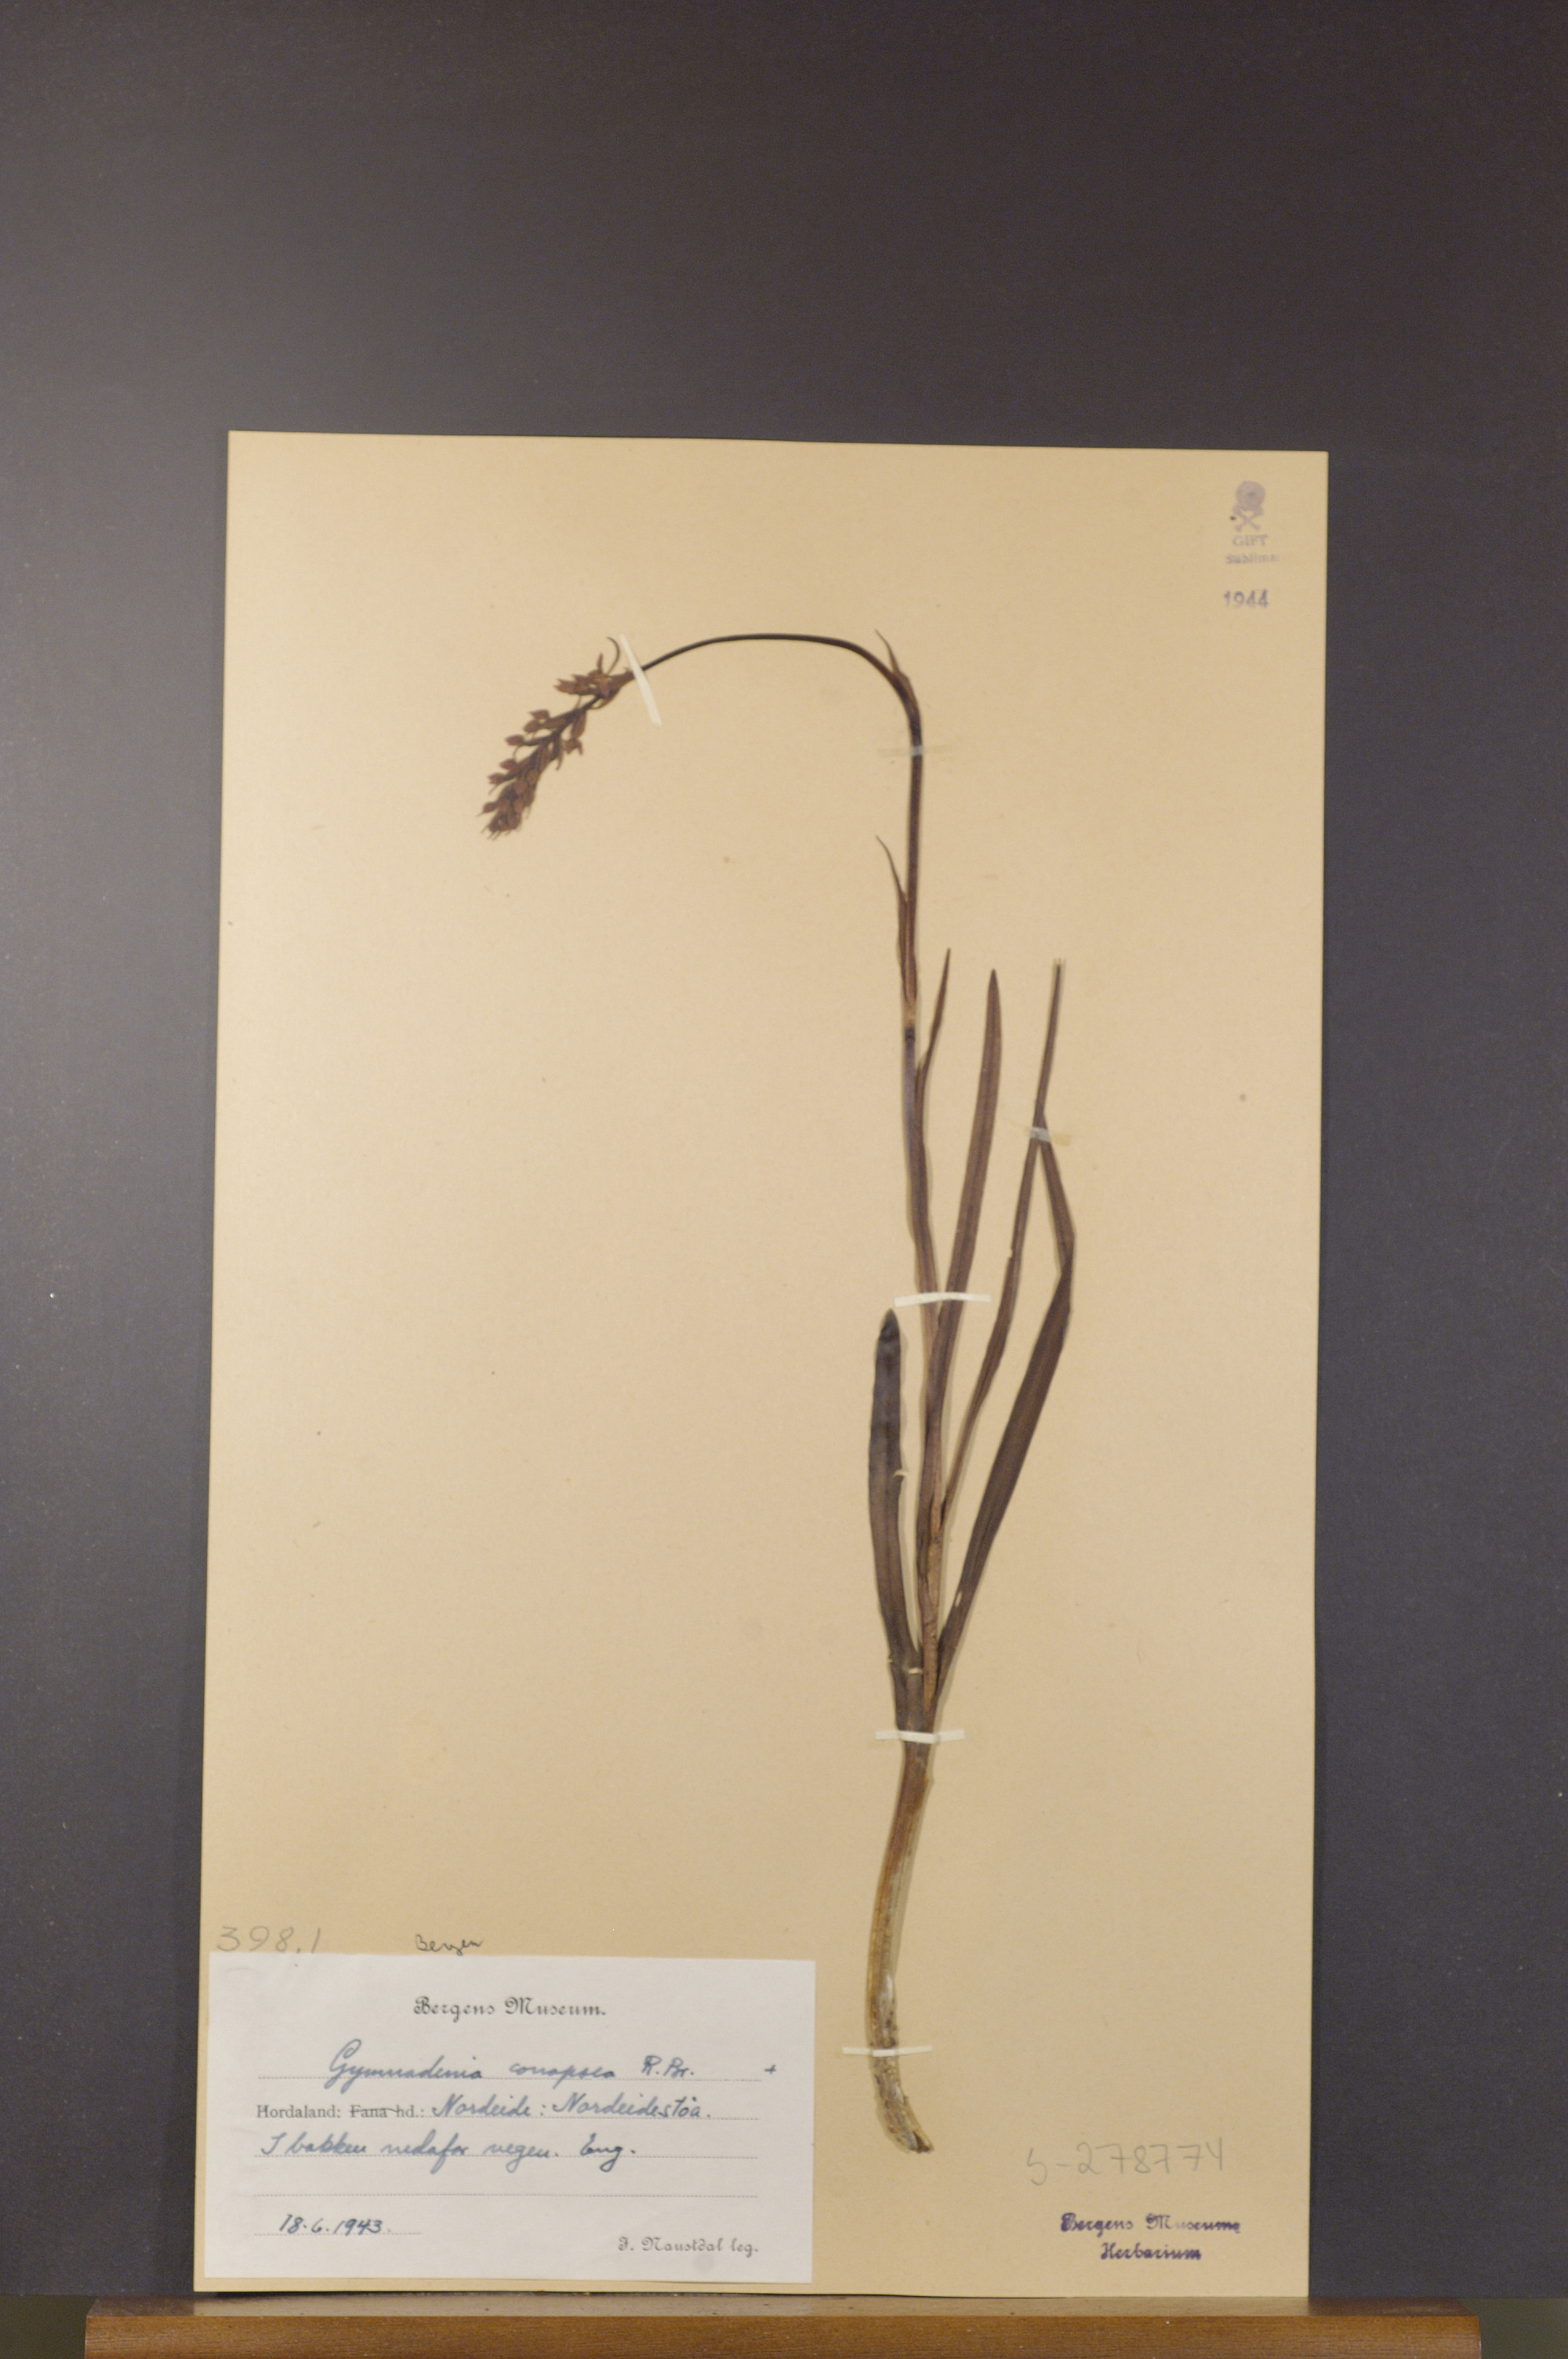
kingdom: Plantae
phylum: Tracheophyta
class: Liliopsida
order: Asparagales
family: Orchidaceae
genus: Gymnadenia
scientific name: Gymnadenia conopsea
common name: Fragrant orchid
